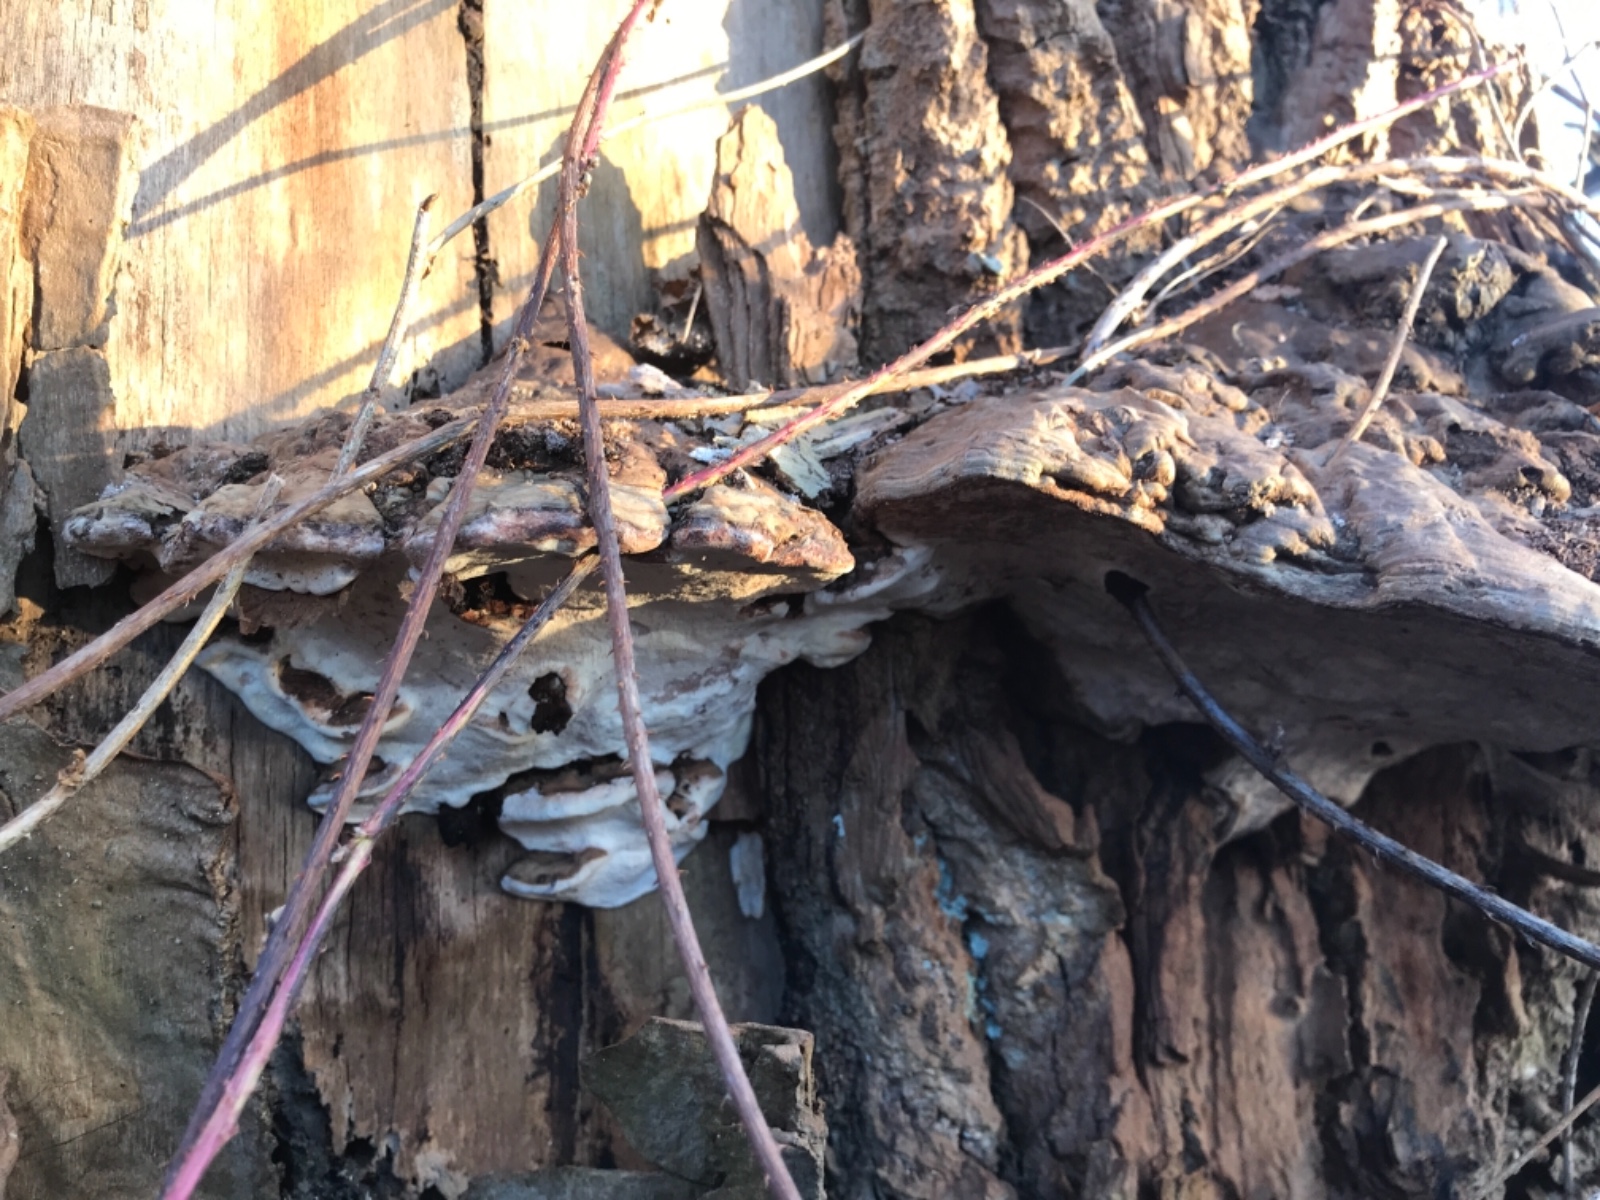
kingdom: Fungi
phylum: Basidiomycota
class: Agaricomycetes
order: Polyporales
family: Polyporaceae
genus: Ganoderma
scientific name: Ganoderma applanatum
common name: flad lakporesvamp
